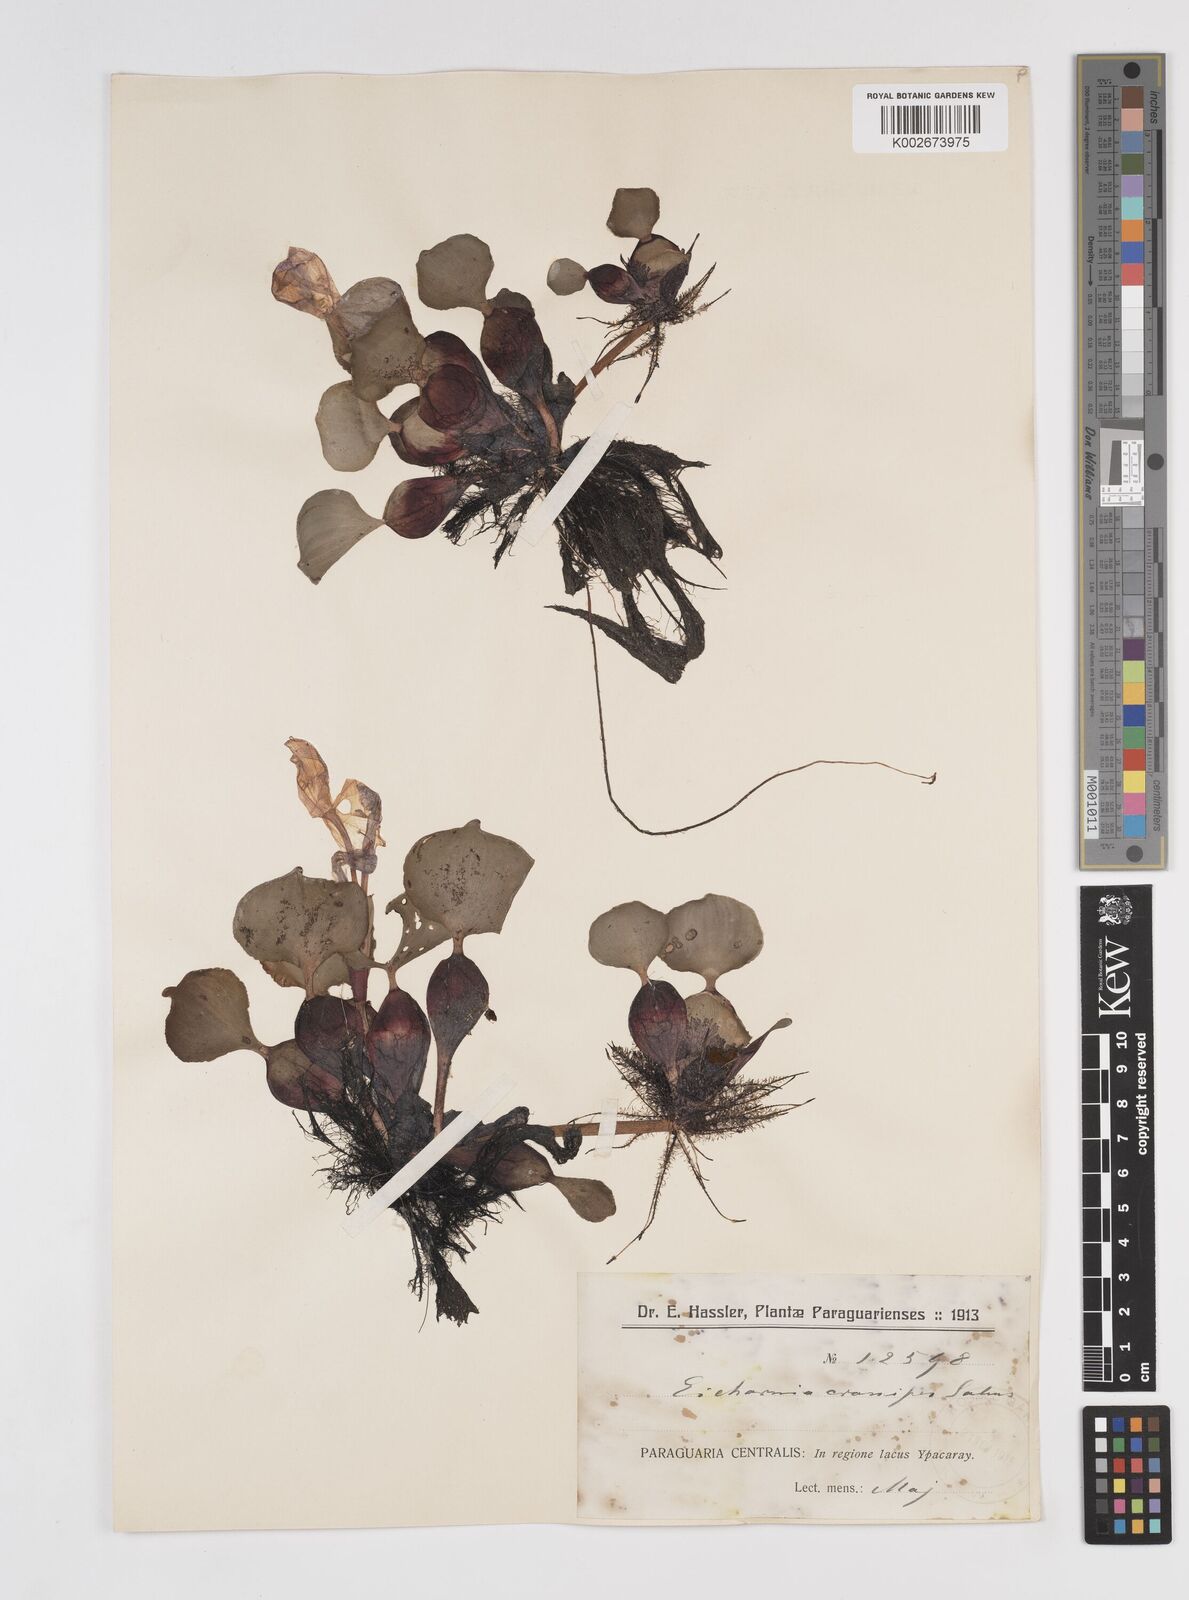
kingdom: Plantae
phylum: Tracheophyta
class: Liliopsida
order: Commelinales
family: Pontederiaceae
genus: Pontederia
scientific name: Pontederia crassipes
